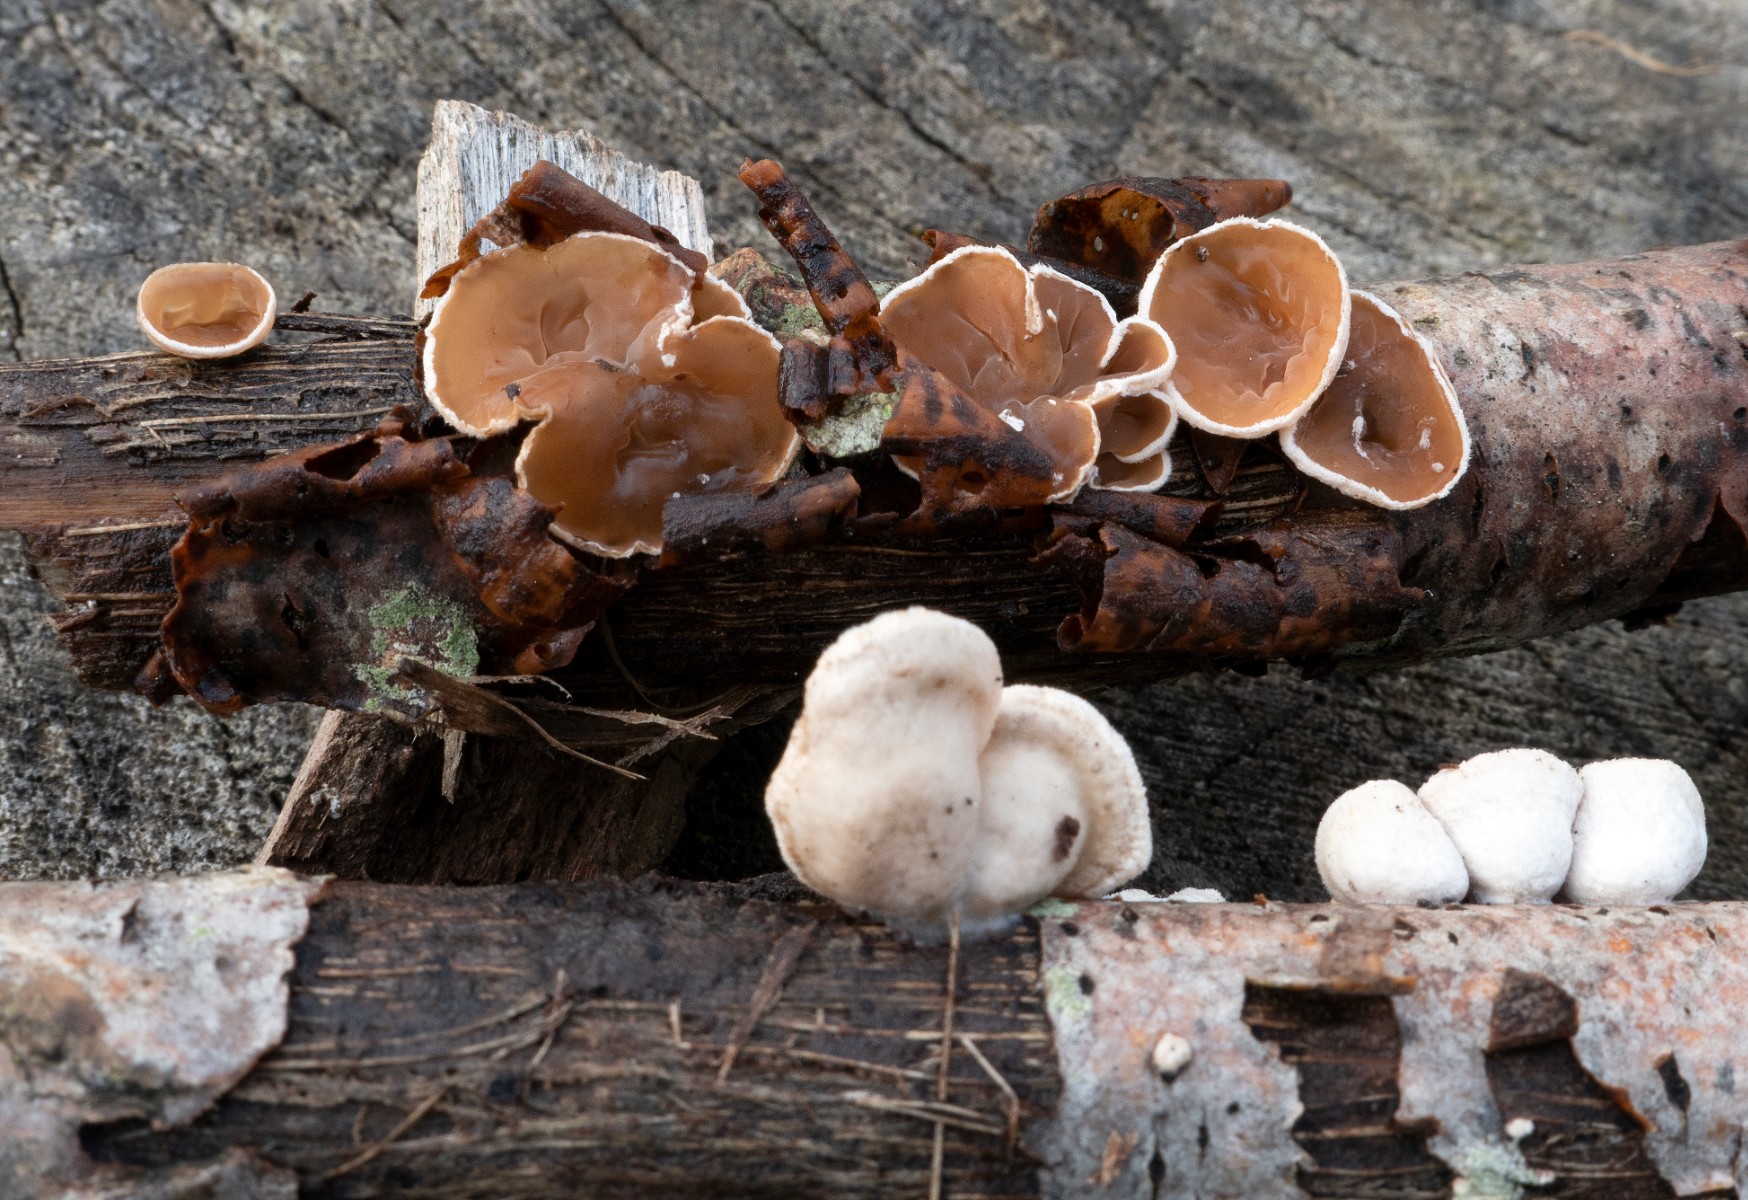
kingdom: Fungi
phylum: Basidiomycota
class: Agaricomycetes
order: Agaricales
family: Schizophyllaceae
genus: Schizophyllum
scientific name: Schizophyllum amplum
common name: poppel-hængeøre
